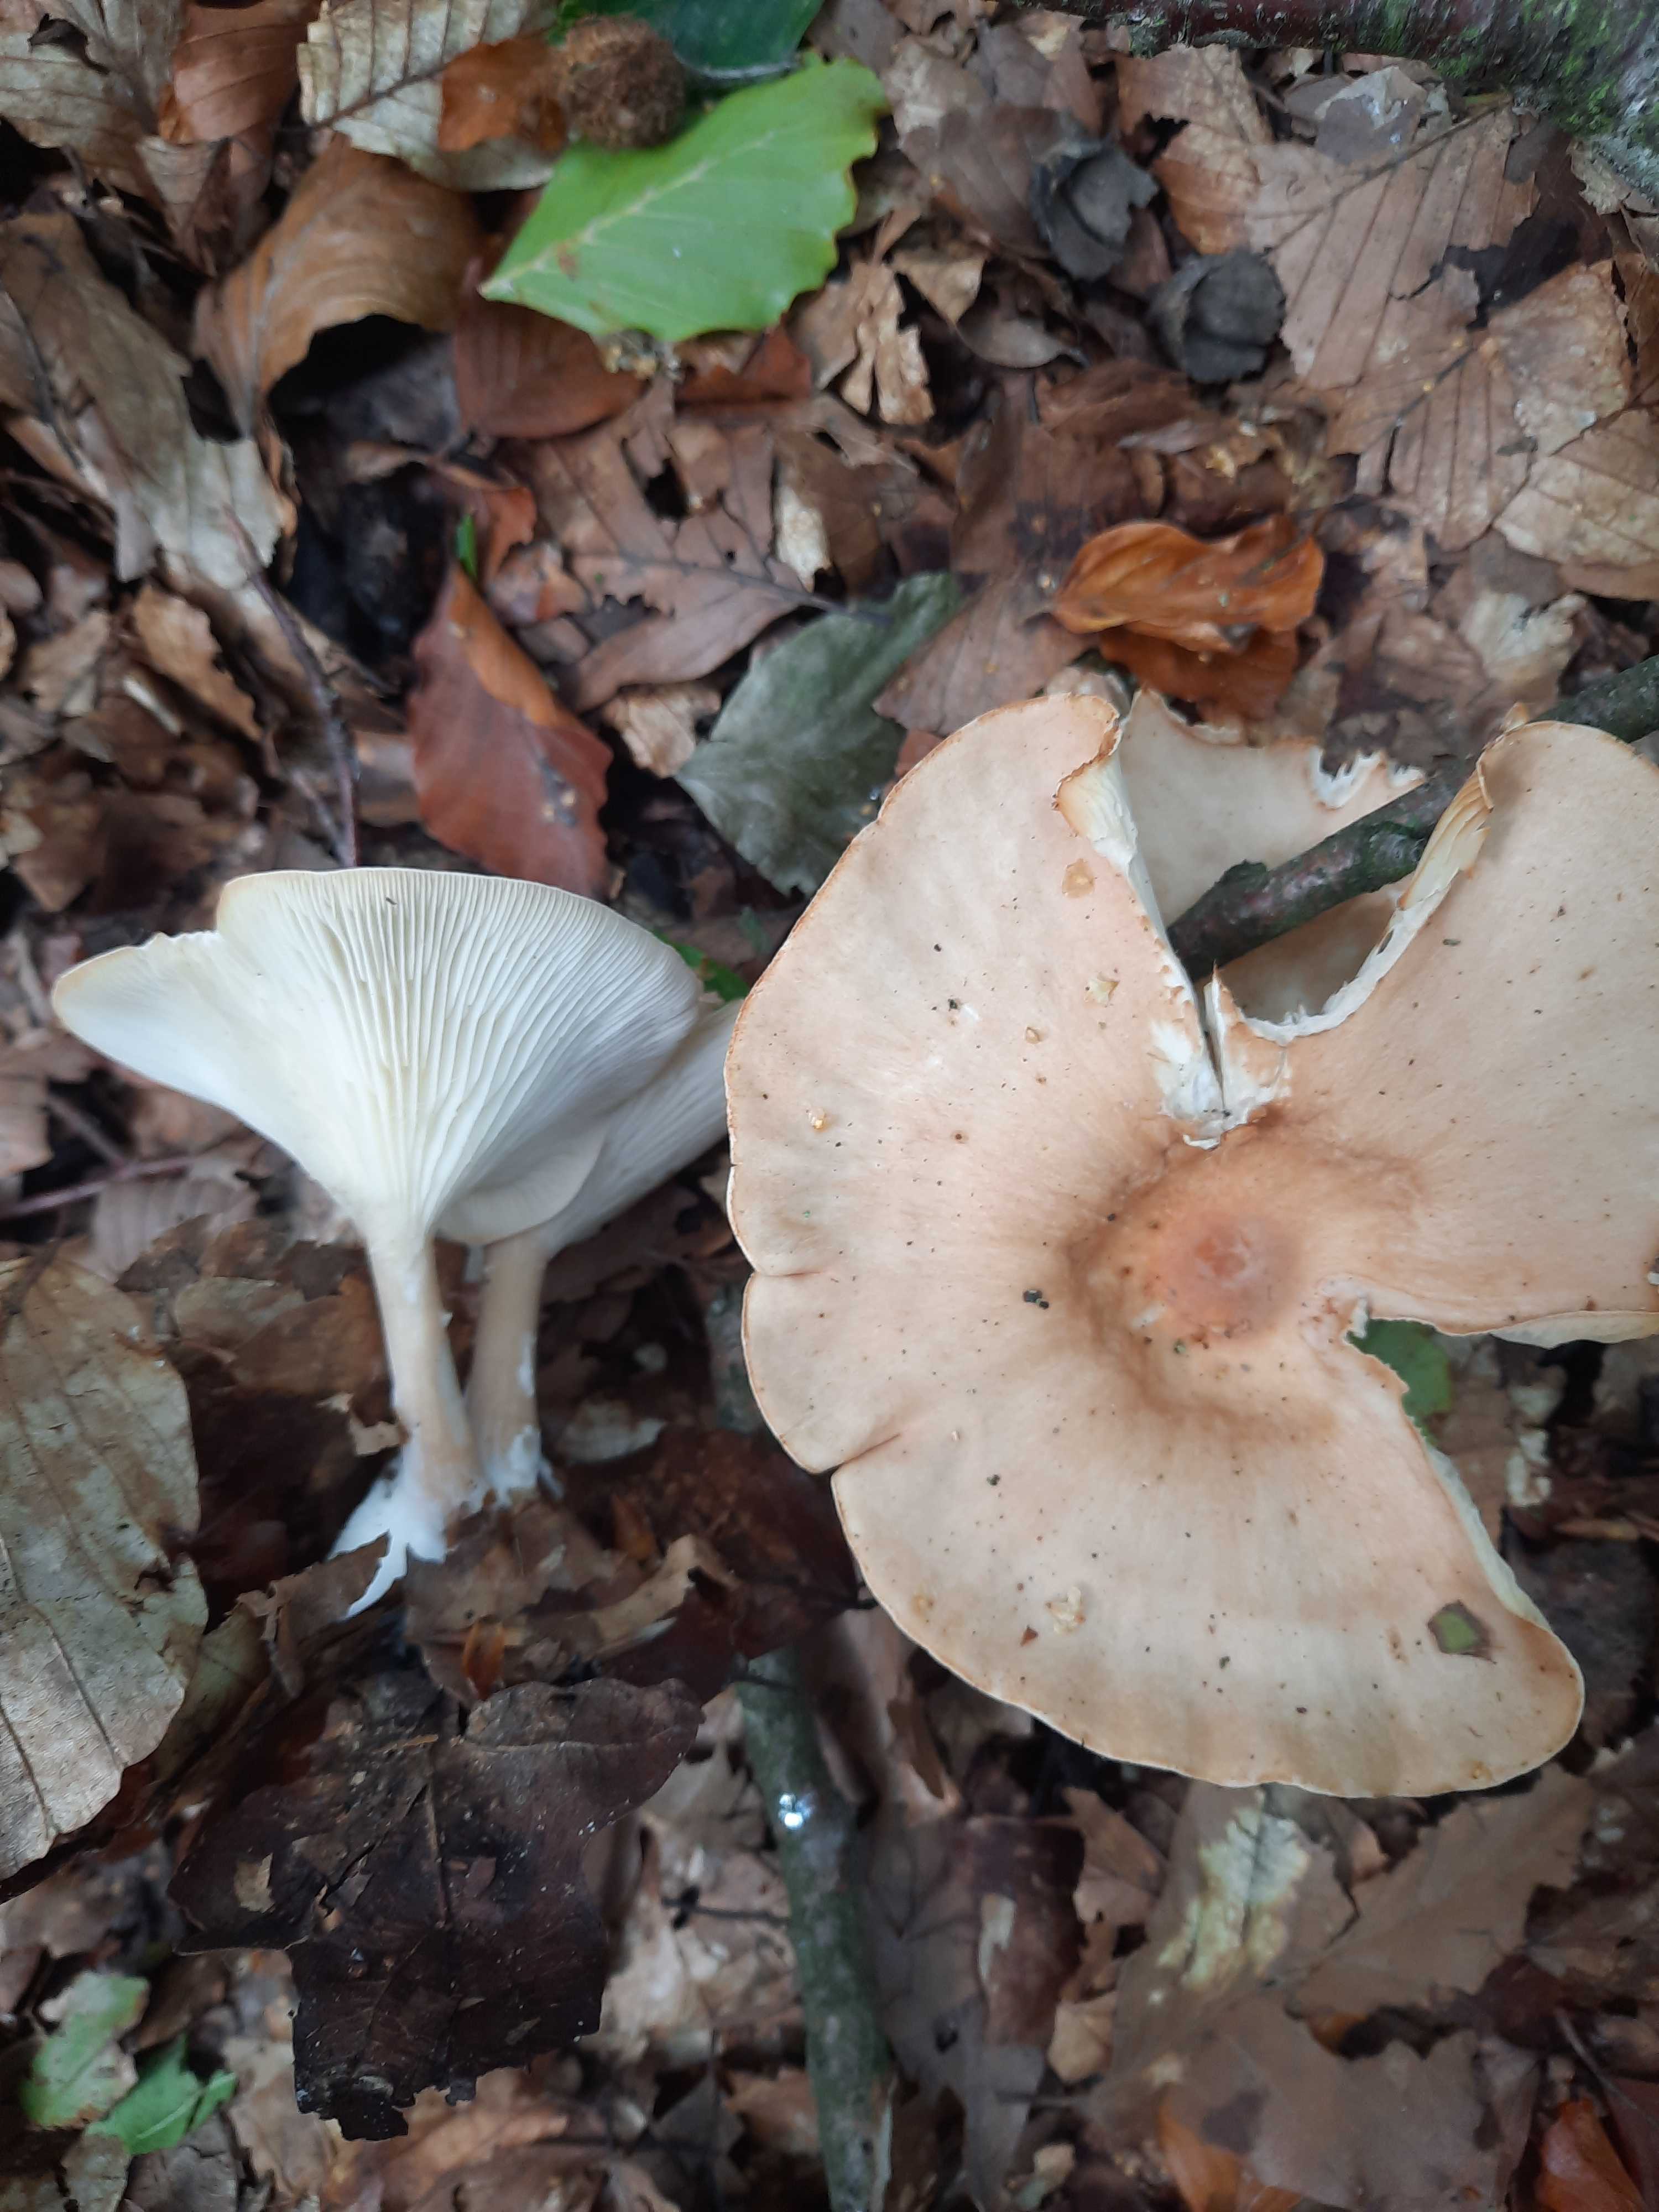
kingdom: Fungi
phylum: Basidiomycota
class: Agaricomycetes
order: Agaricales
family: Tricholomataceae
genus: Infundibulicybe
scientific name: Infundibulicybe gibba
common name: almindelig tragthat
